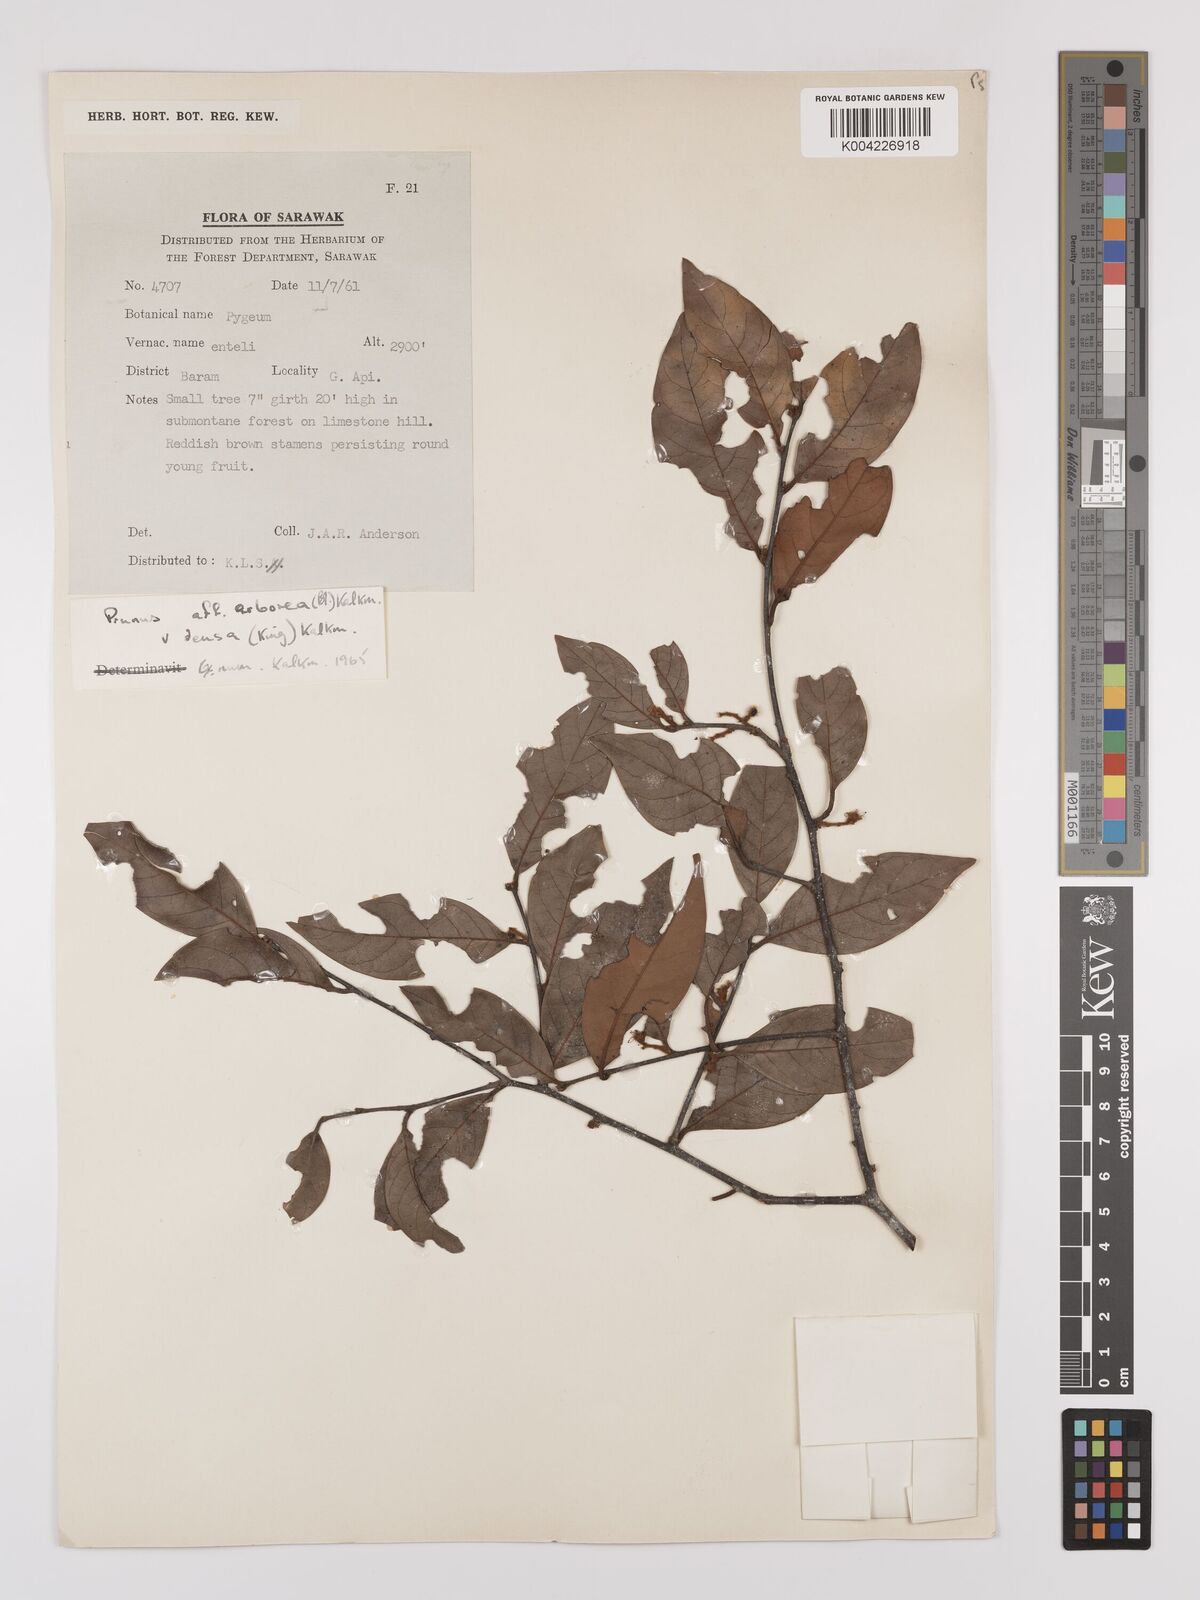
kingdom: Plantae
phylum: Tracheophyta
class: Magnoliopsida
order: Rosales
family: Rosaceae
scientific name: Rosaceae
